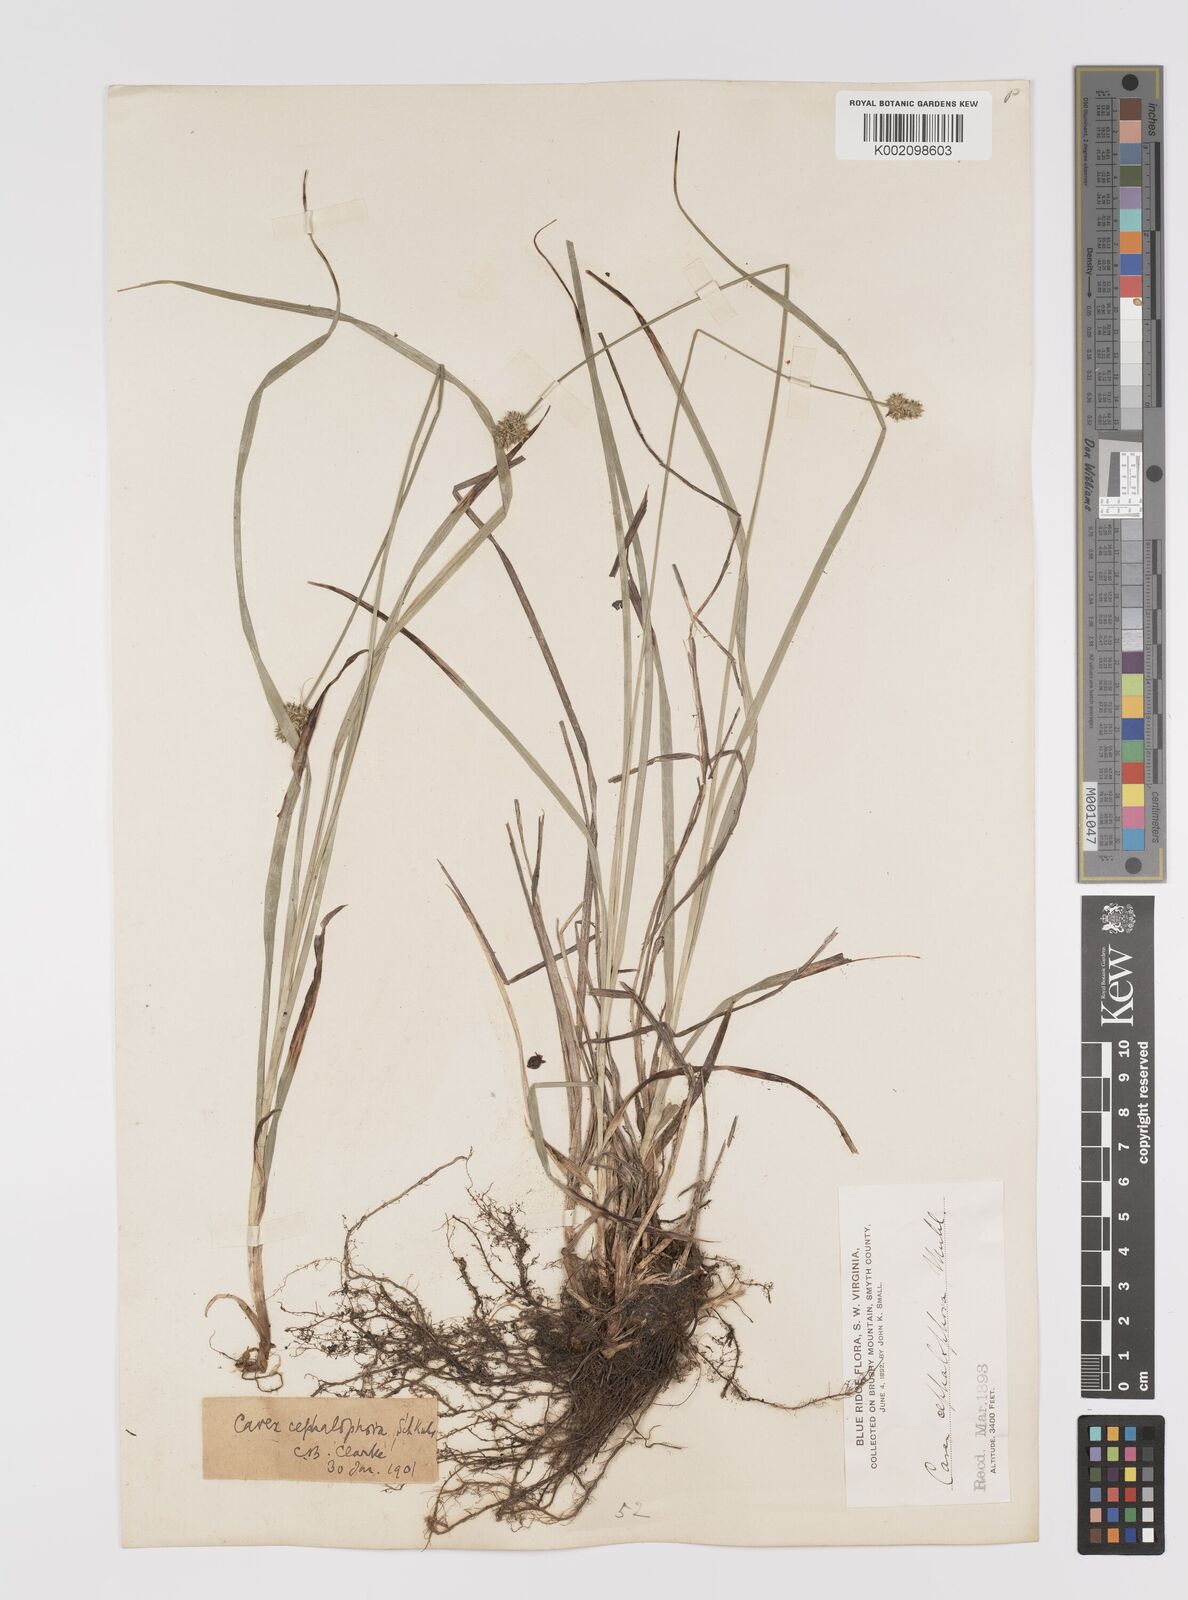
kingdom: Plantae
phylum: Tracheophyta
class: Liliopsida
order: Poales
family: Cyperaceae
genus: Carex
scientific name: Carex cephalophora
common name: Oval-headed sedge
